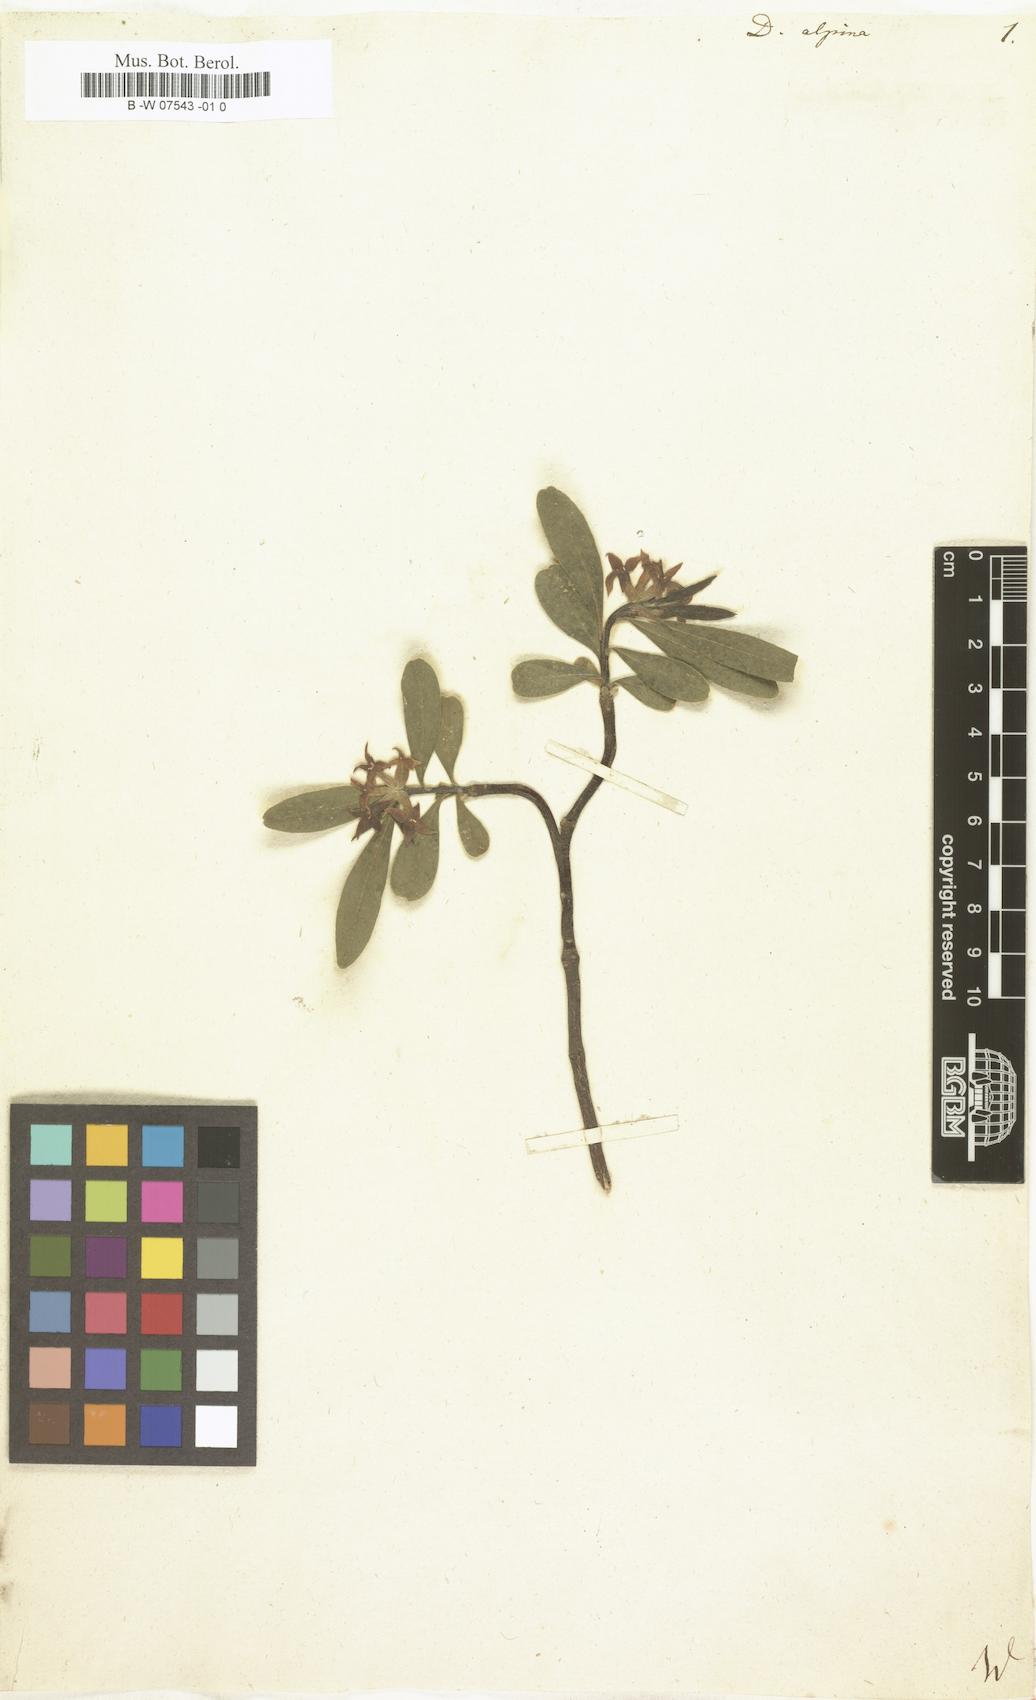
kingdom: Plantae
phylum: Tracheophyta
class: Magnoliopsida
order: Malvales
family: Thymelaeaceae
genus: Daphne
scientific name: Daphne alpina
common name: Alpine daphne
